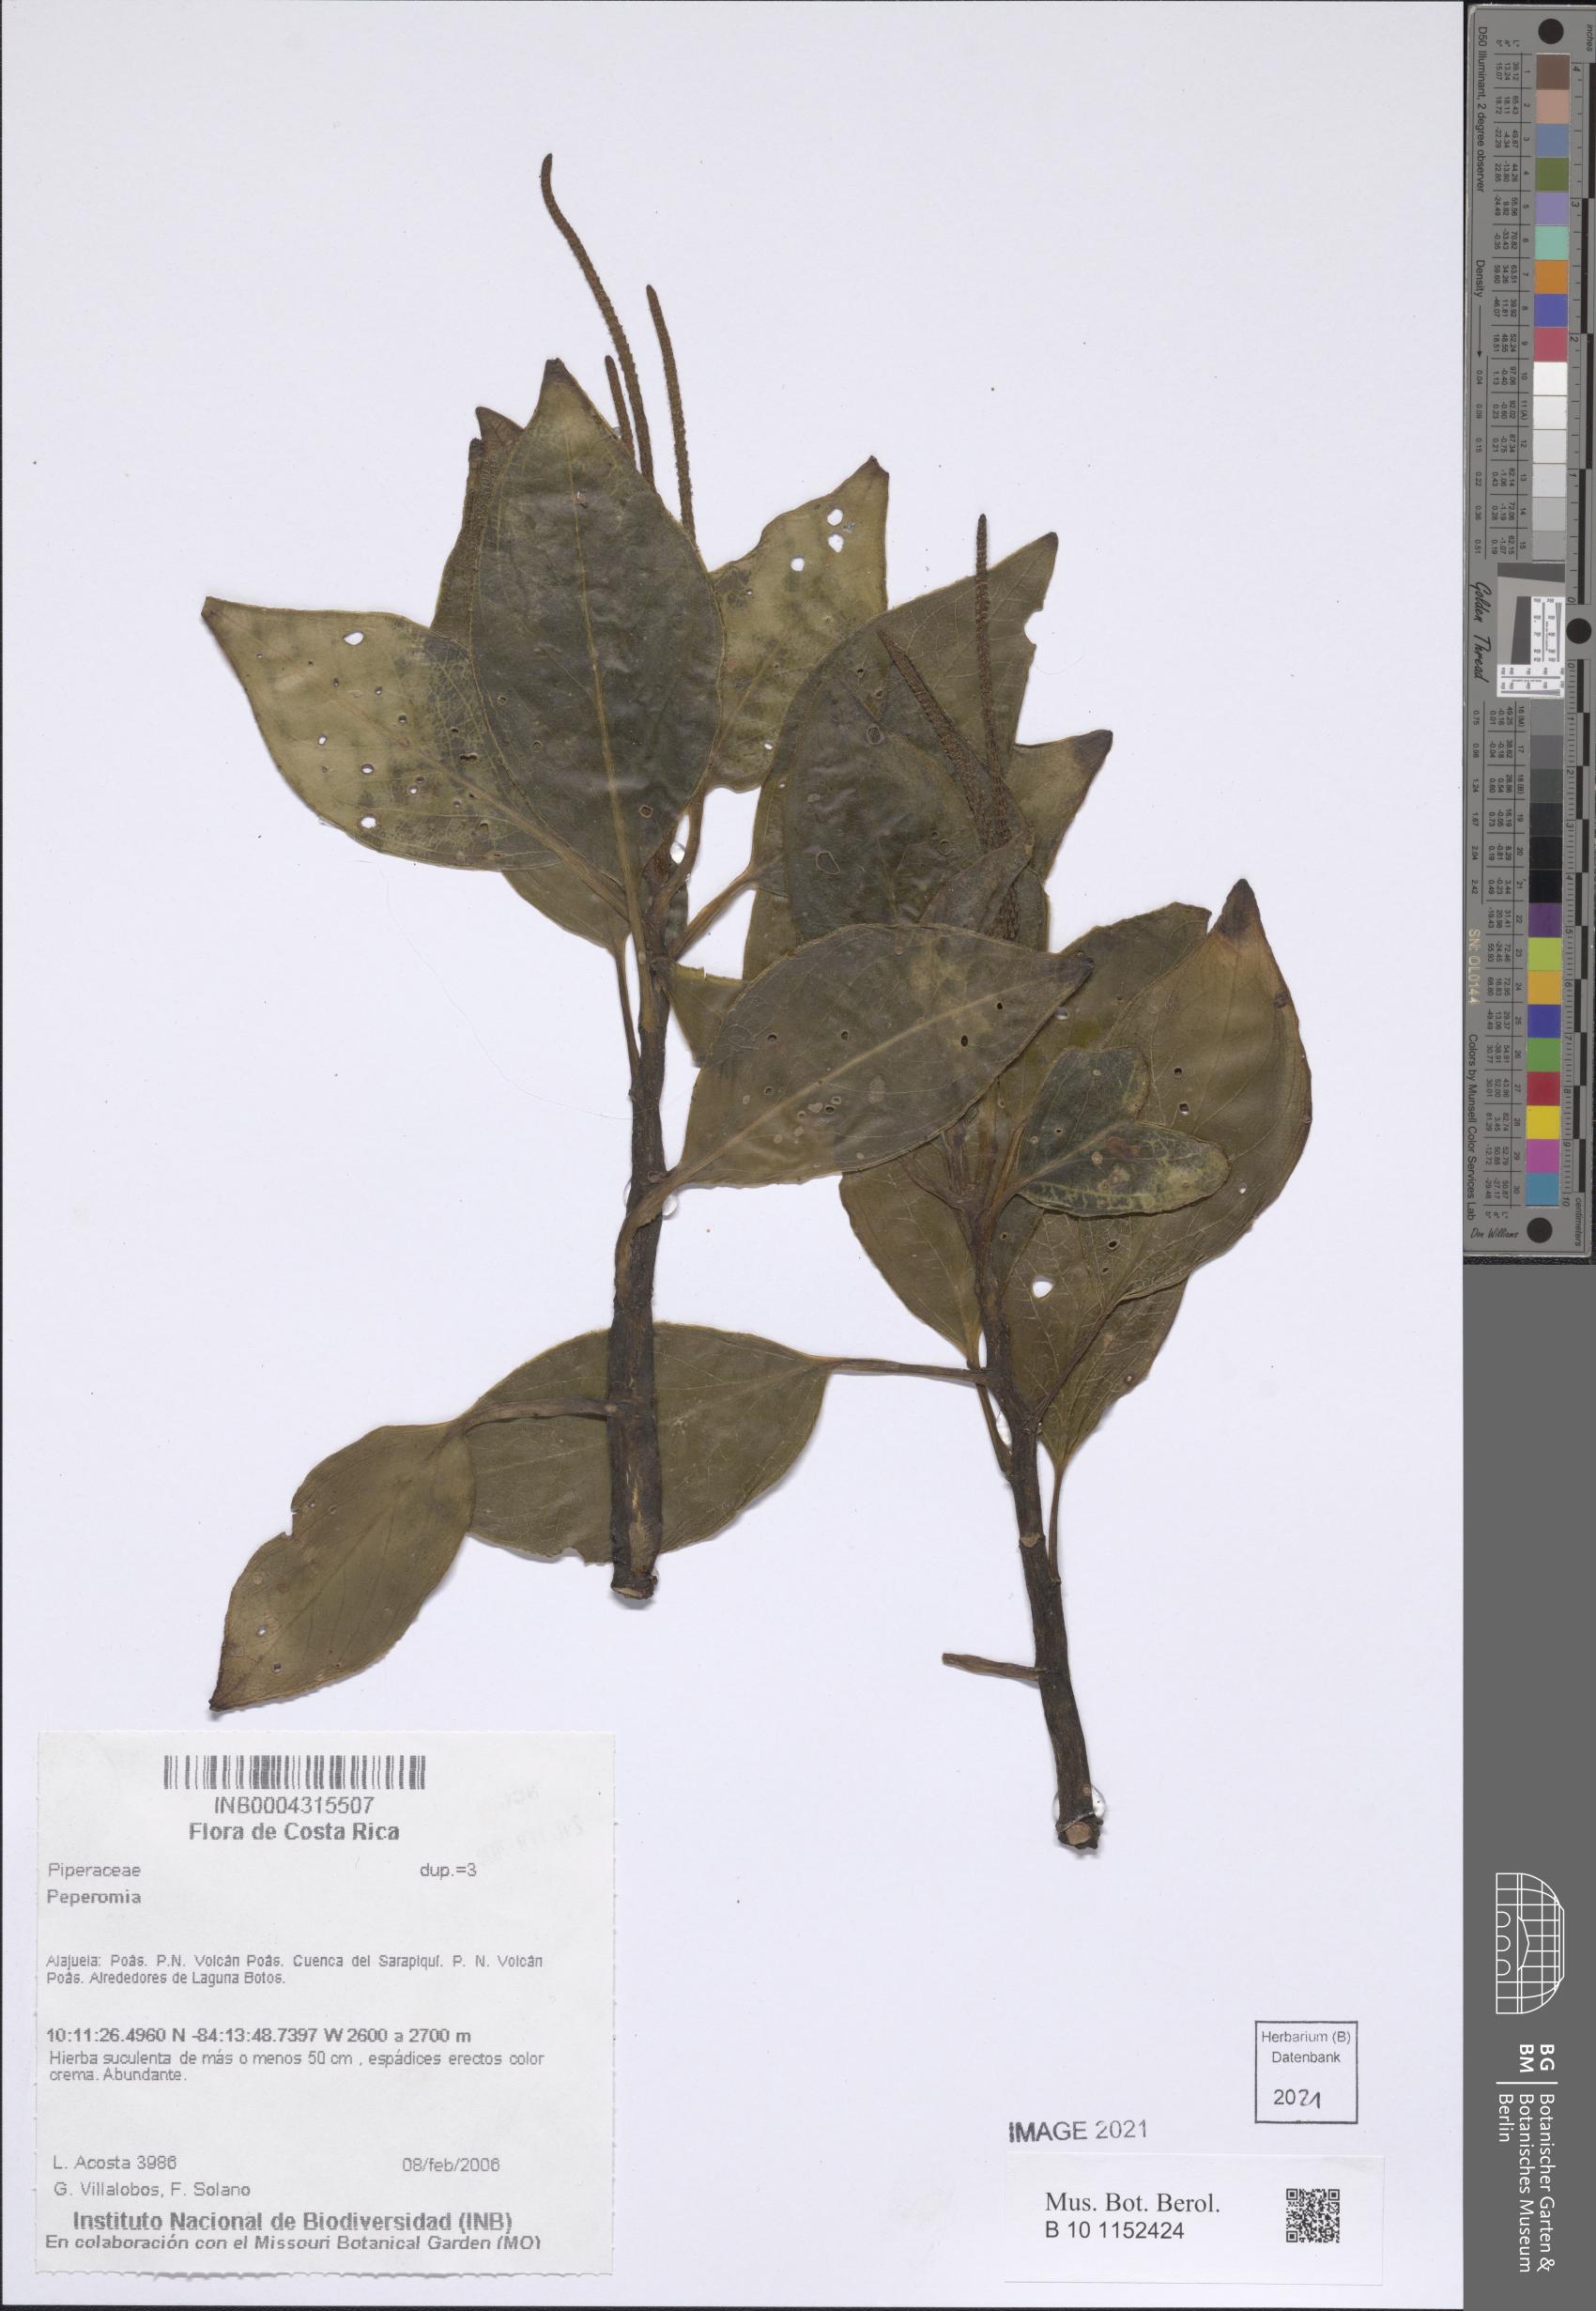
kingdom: Plantae
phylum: Tracheophyta
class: Magnoliopsida
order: Piperales
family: Piperaceae
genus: Peperomia
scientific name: Peperomia
